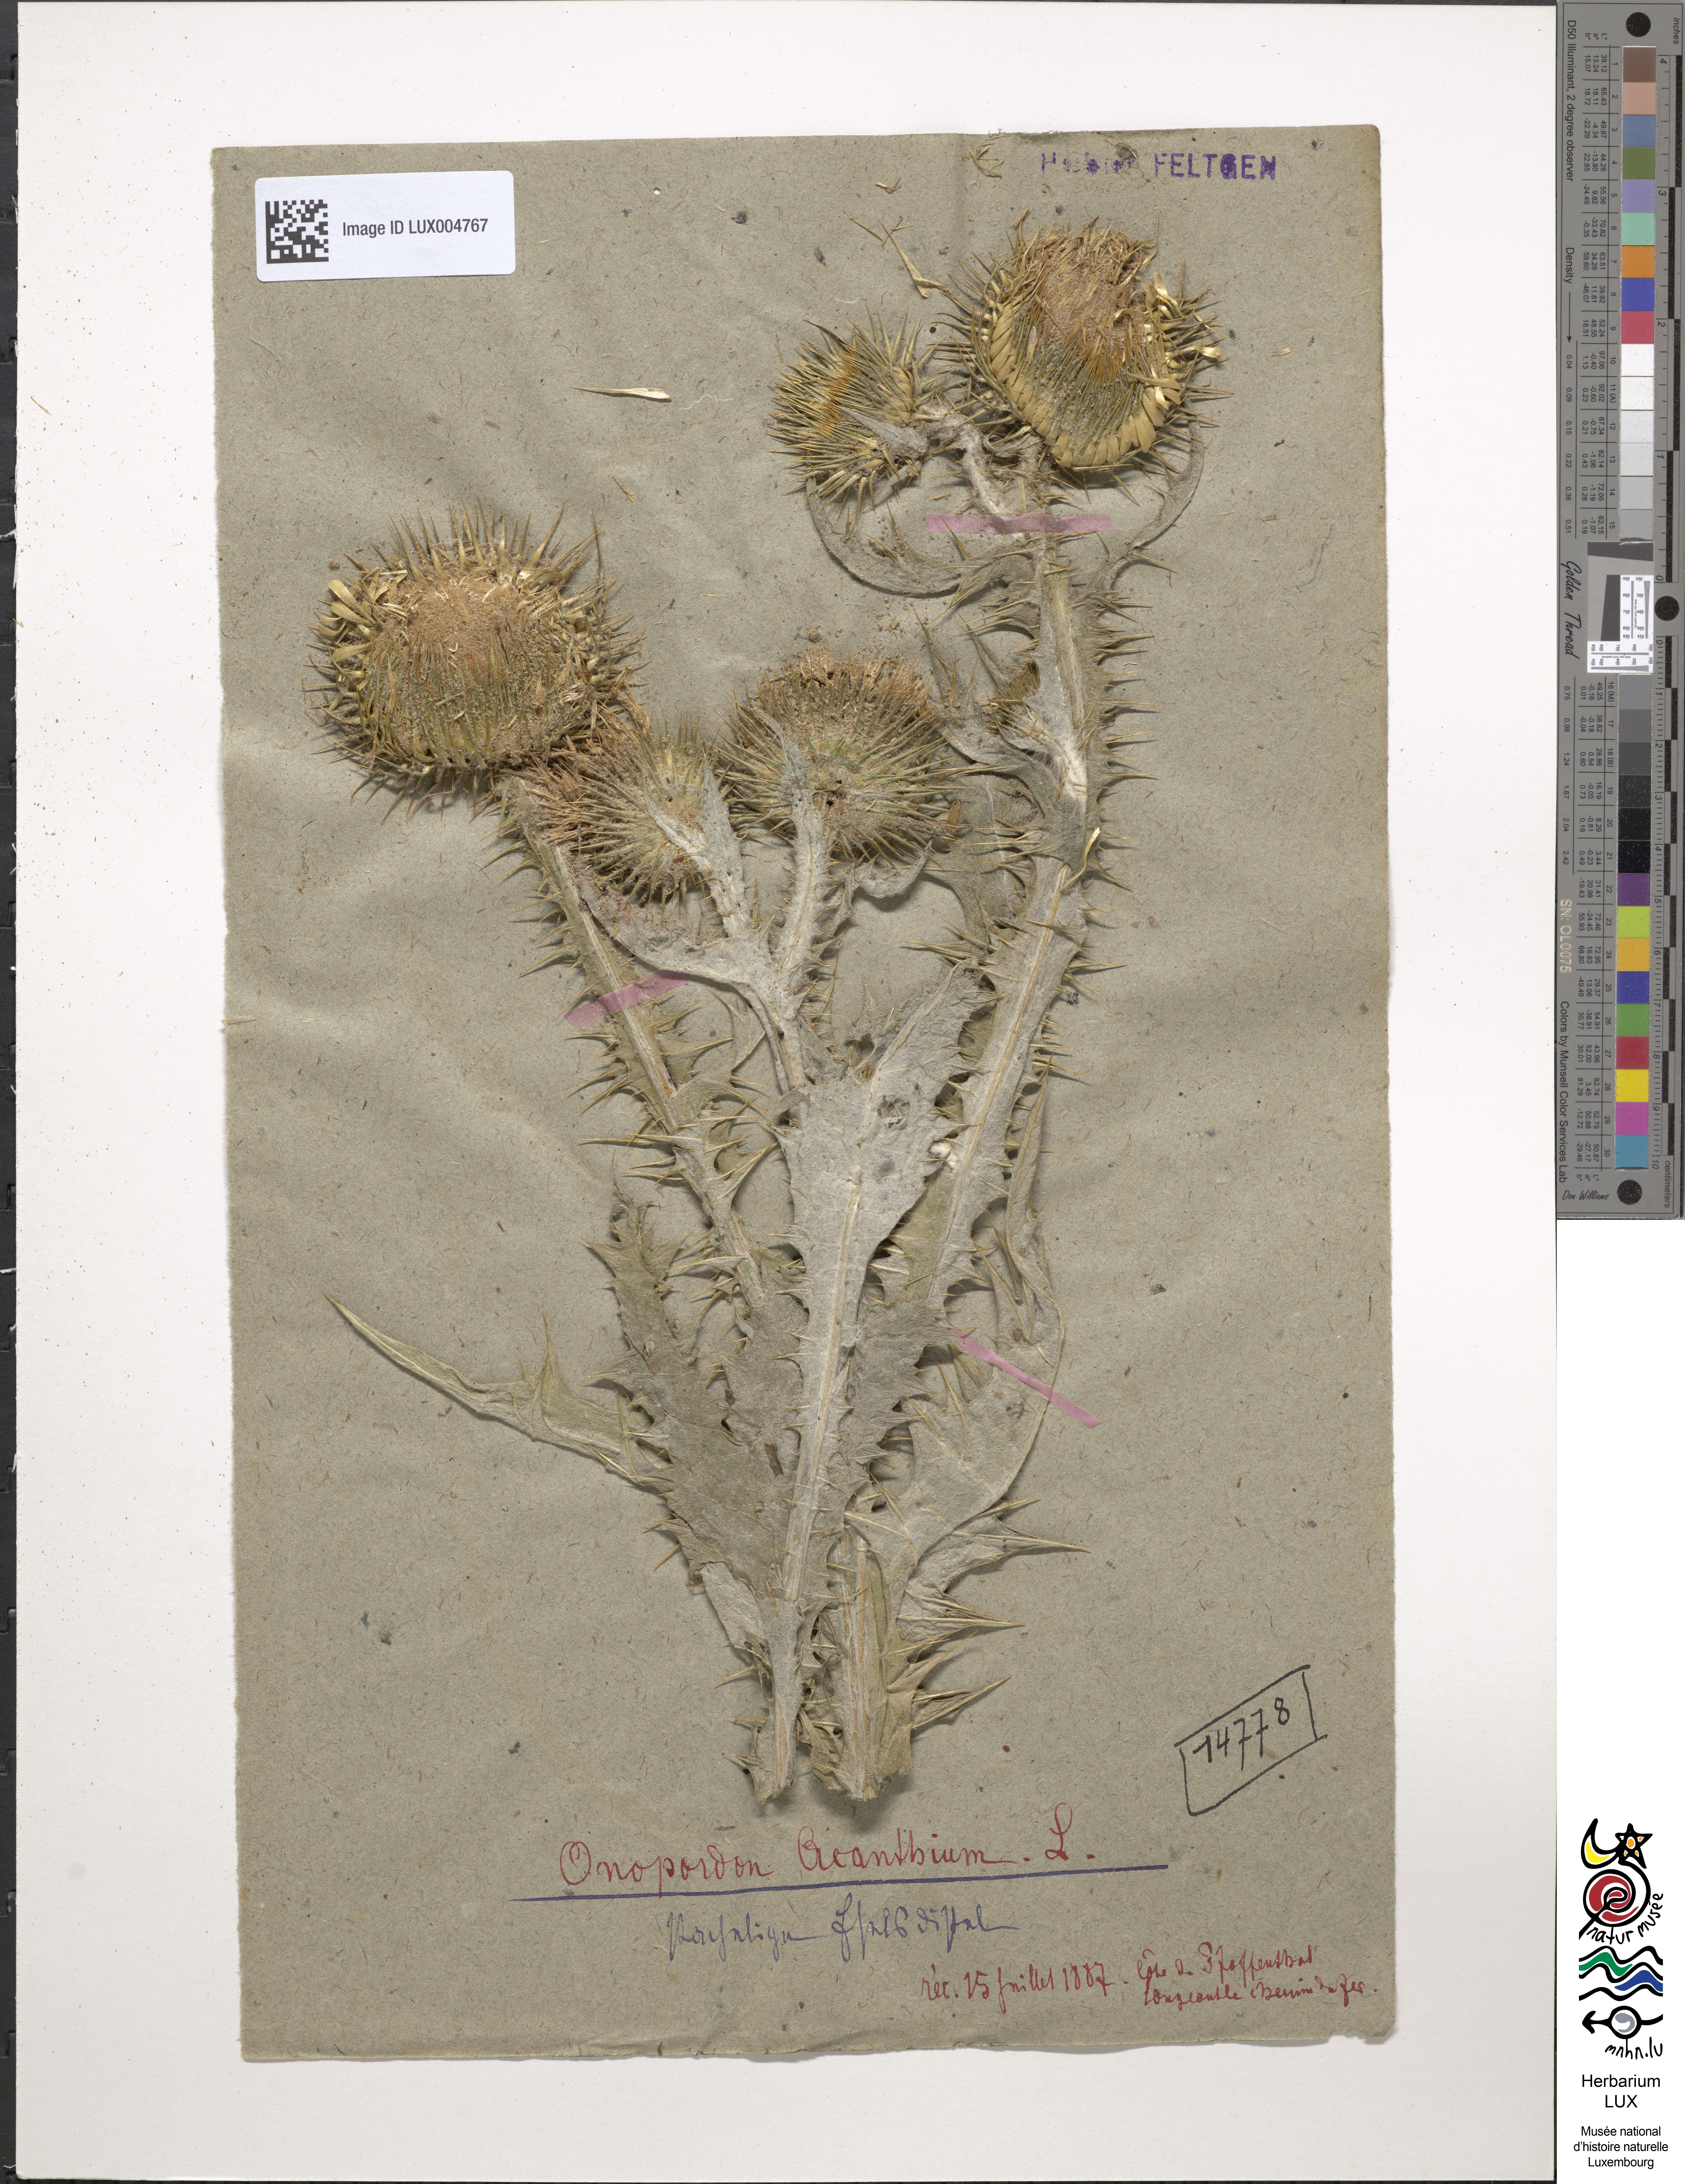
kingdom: Plantae
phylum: Tracheophyta
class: Magnoliopsida
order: Asterales
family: Asteraceae
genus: Onopordum
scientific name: Onopordum acanthium
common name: Scotch thistle
